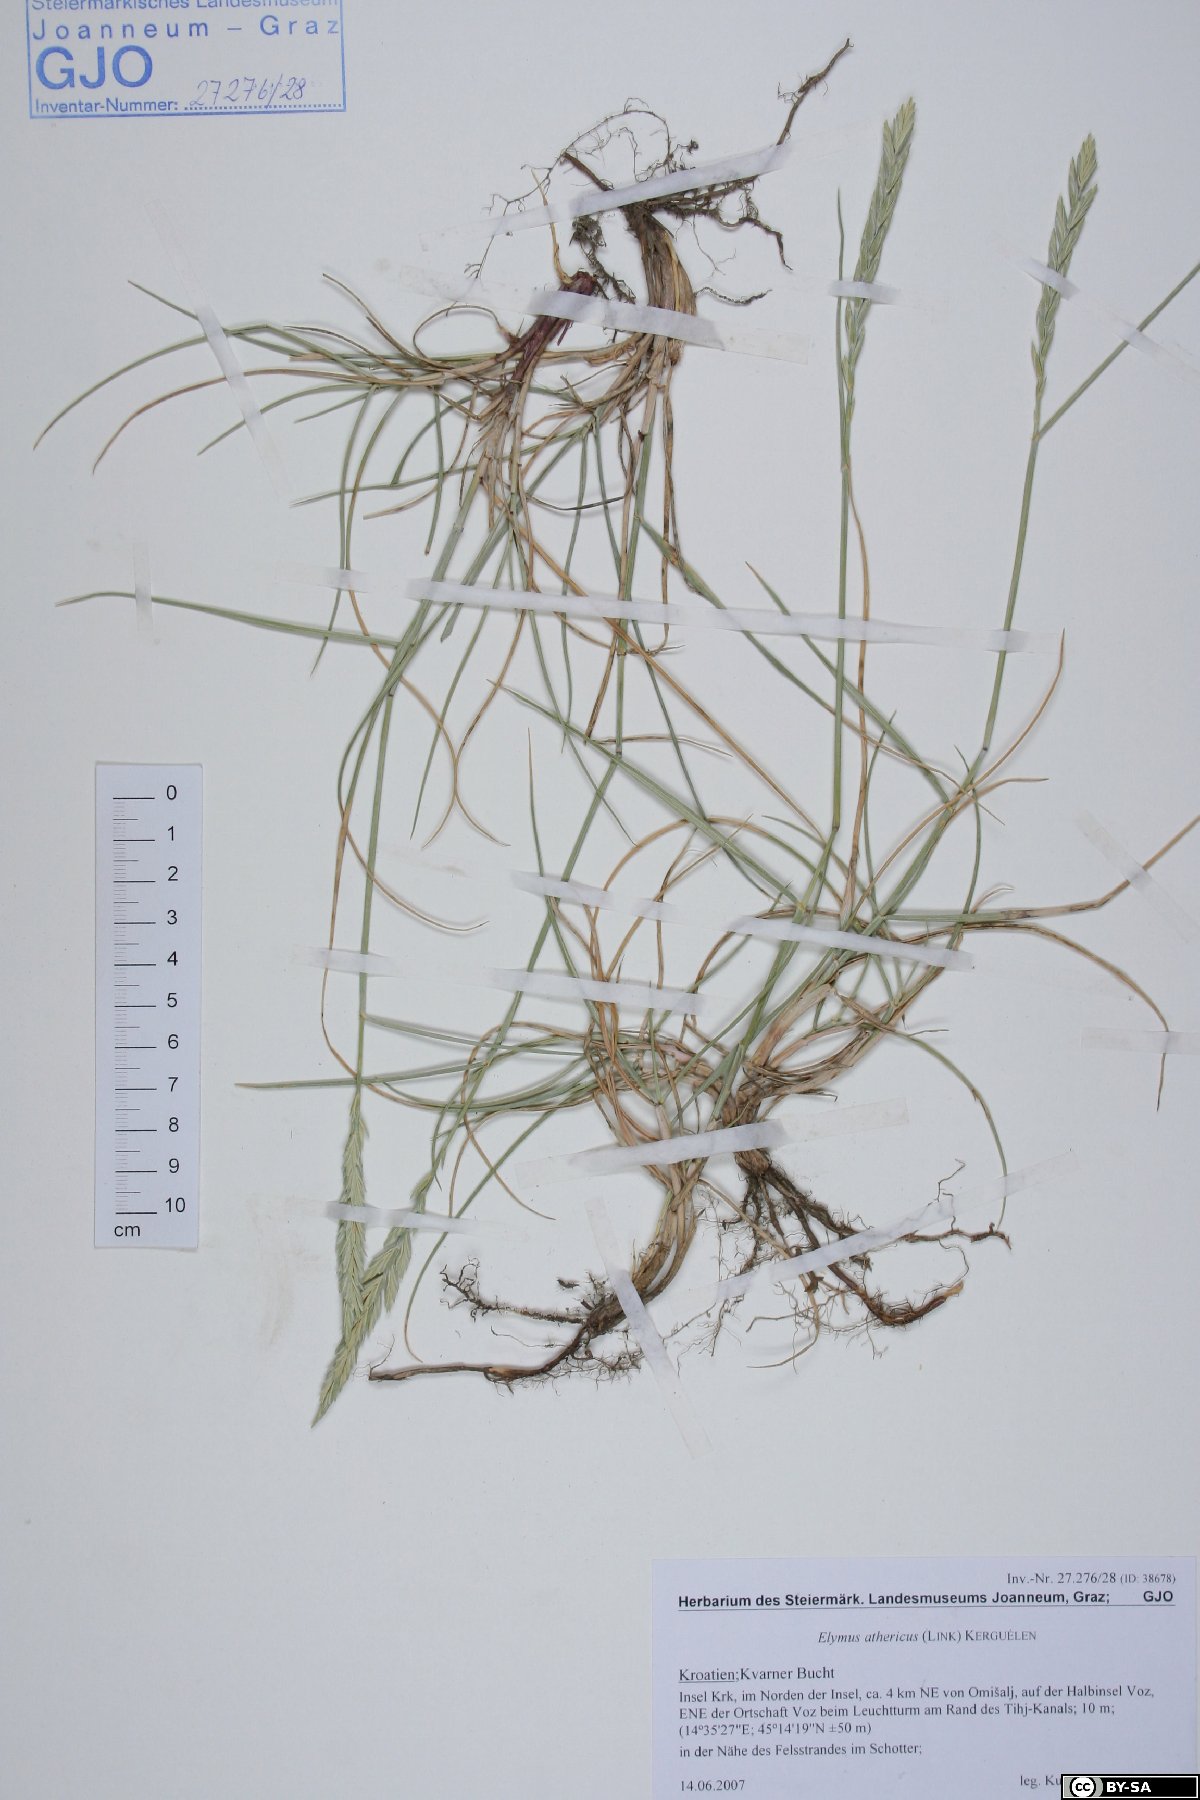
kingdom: Plantae
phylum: Tracheophyta
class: Liliopsida
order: Poales
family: Poaceae
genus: Elymus
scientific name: Elymus athericus
